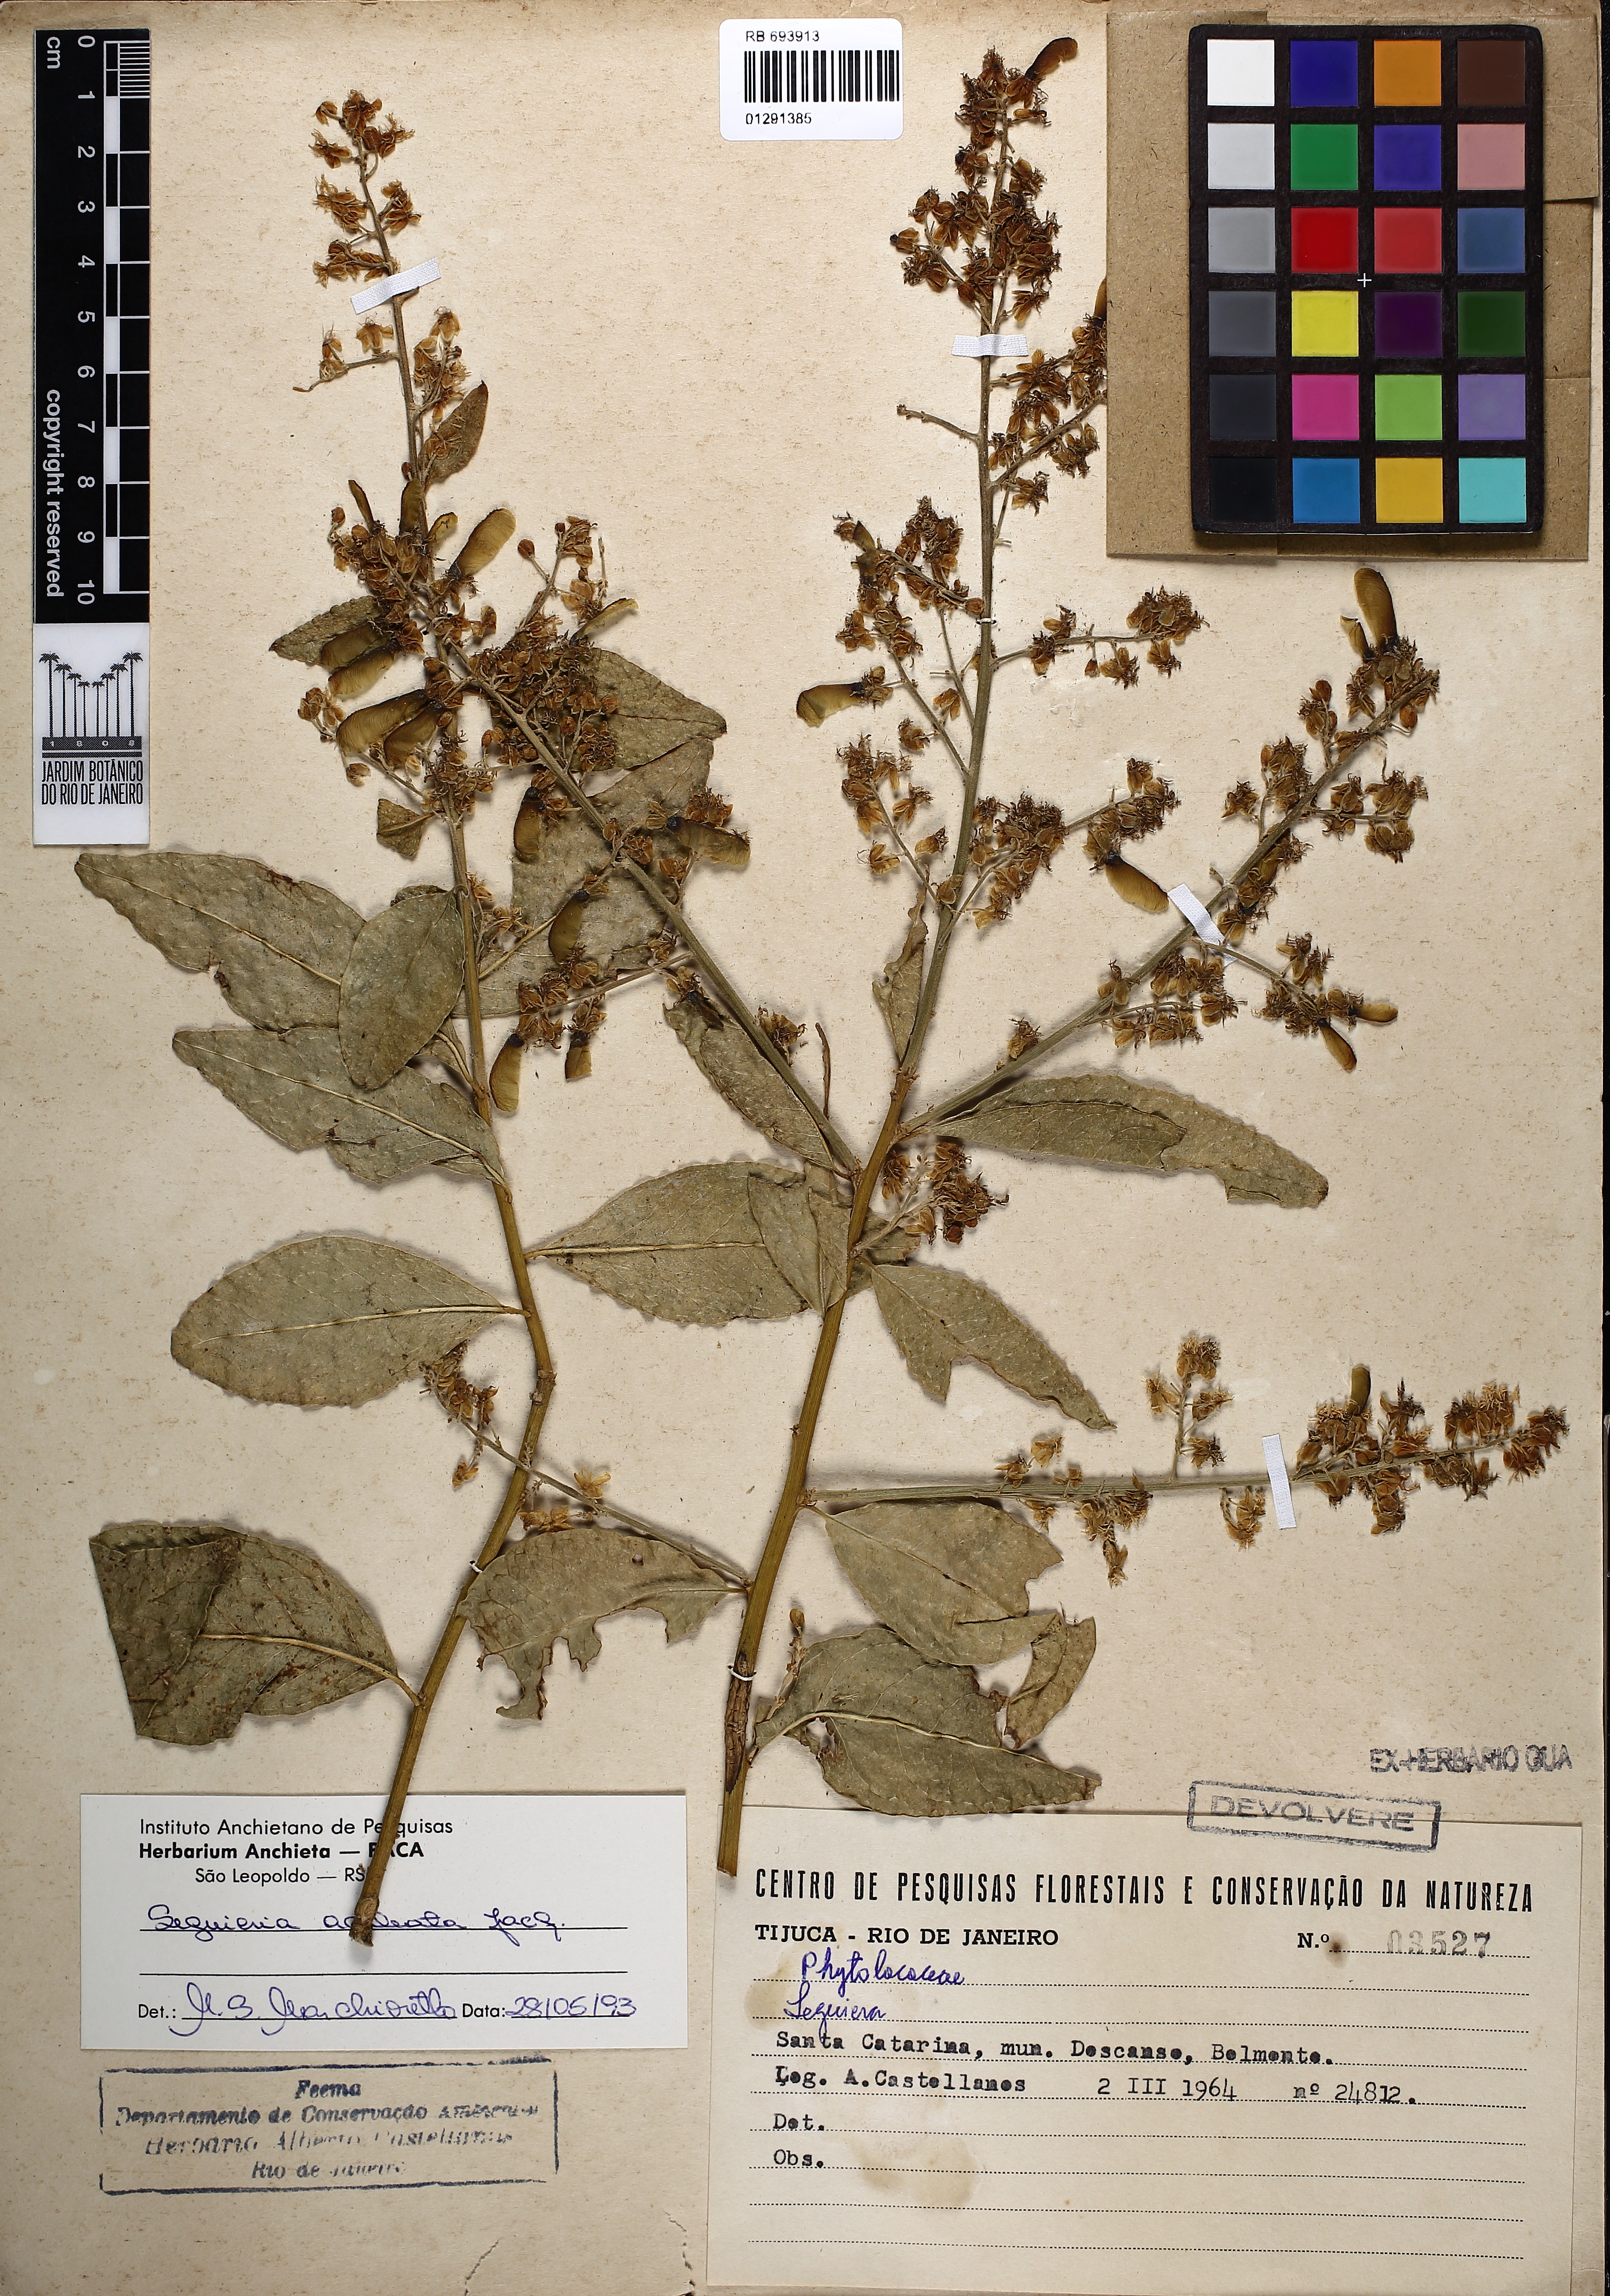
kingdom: Plantae
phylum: Tracheophyta
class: Magnoliopsida
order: Caryophyllales
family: Phytolaccaceae
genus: Seguieria
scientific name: Seguieria aculeata
